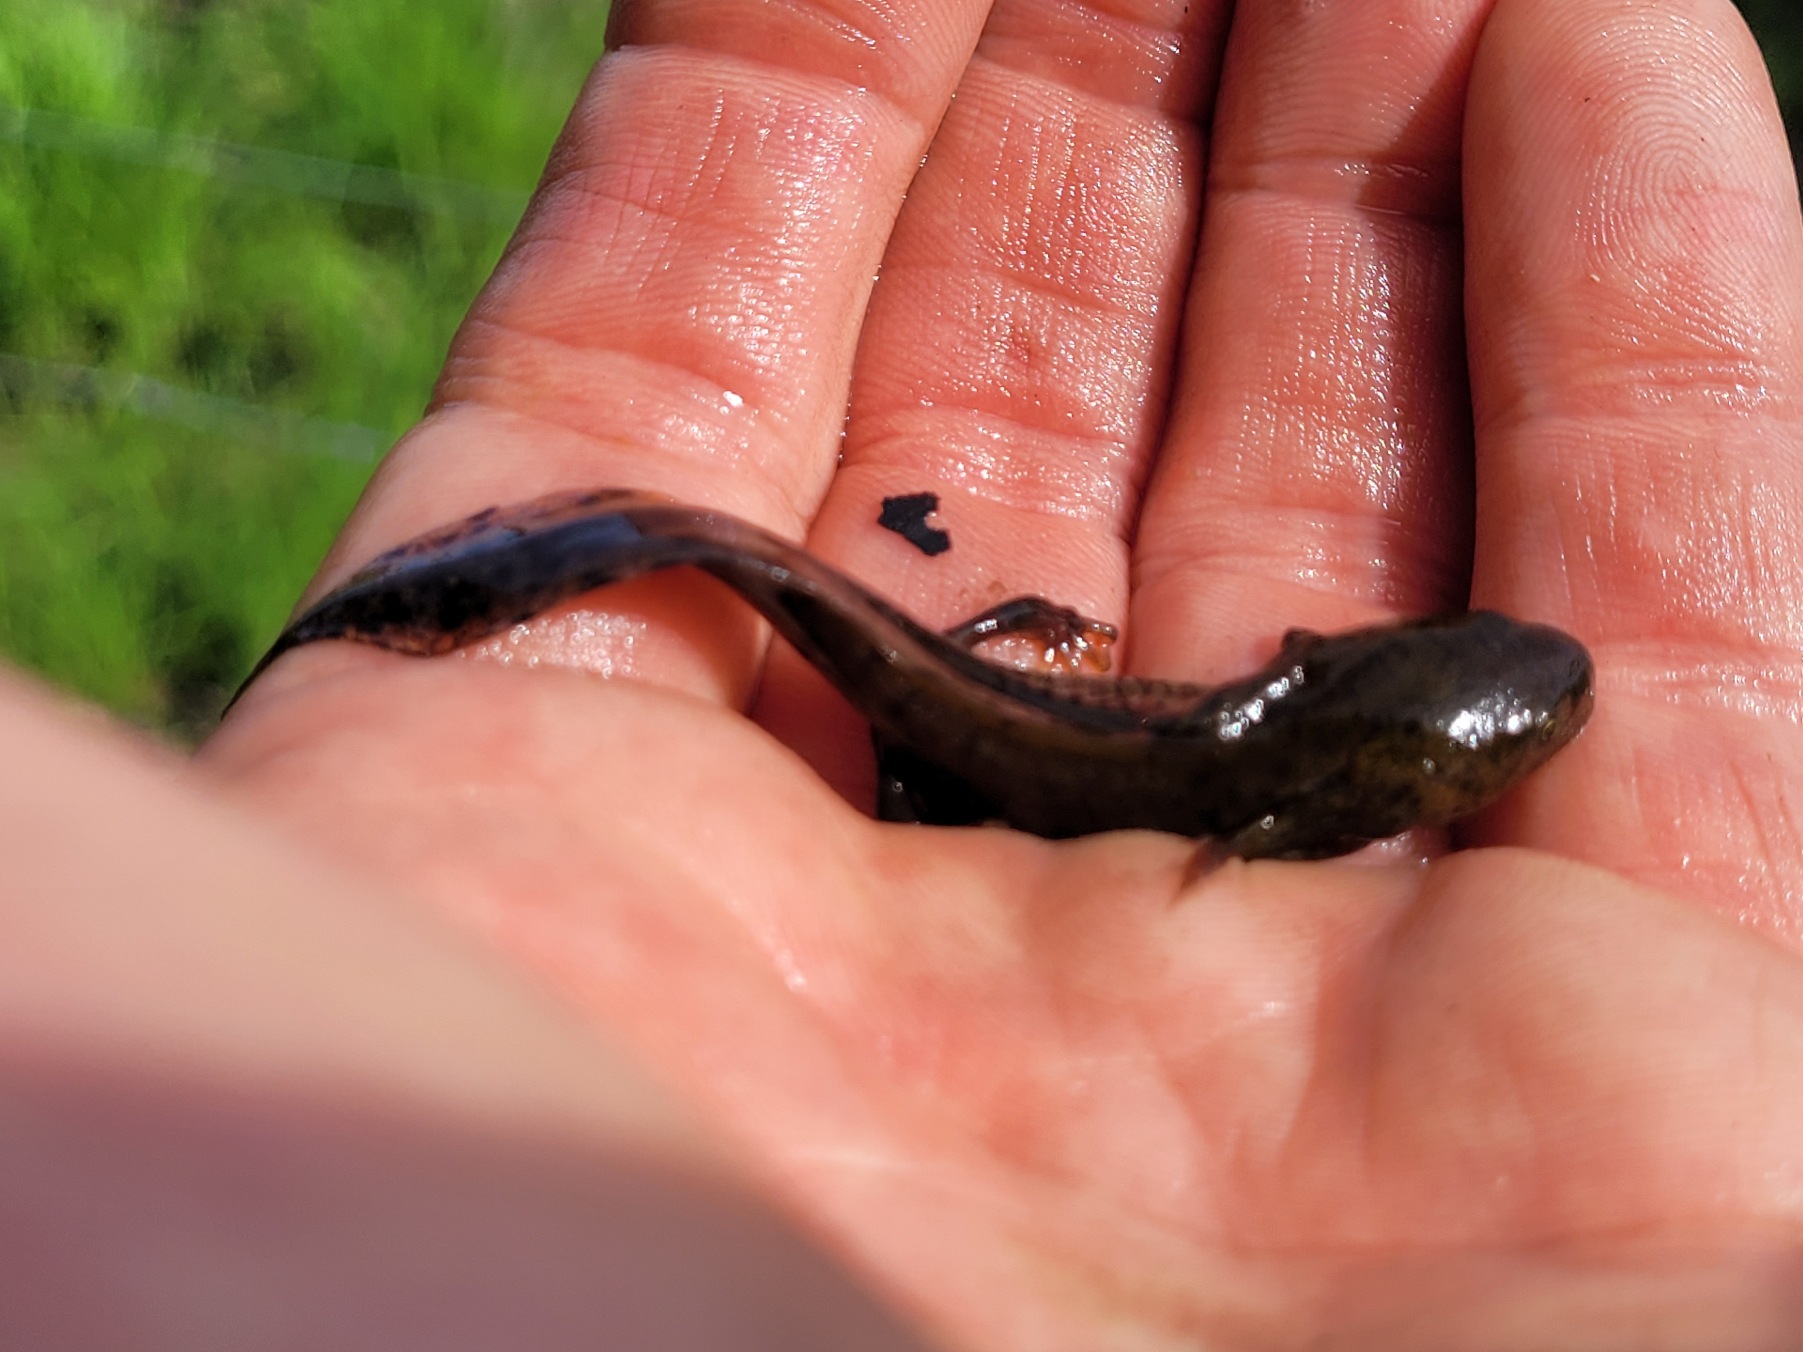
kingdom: Animalia
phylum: Chordata
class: Amphibia
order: Caudata
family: Salamandridae
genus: Triturus
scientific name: Triturus cristatus
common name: Stor vandsalamander
